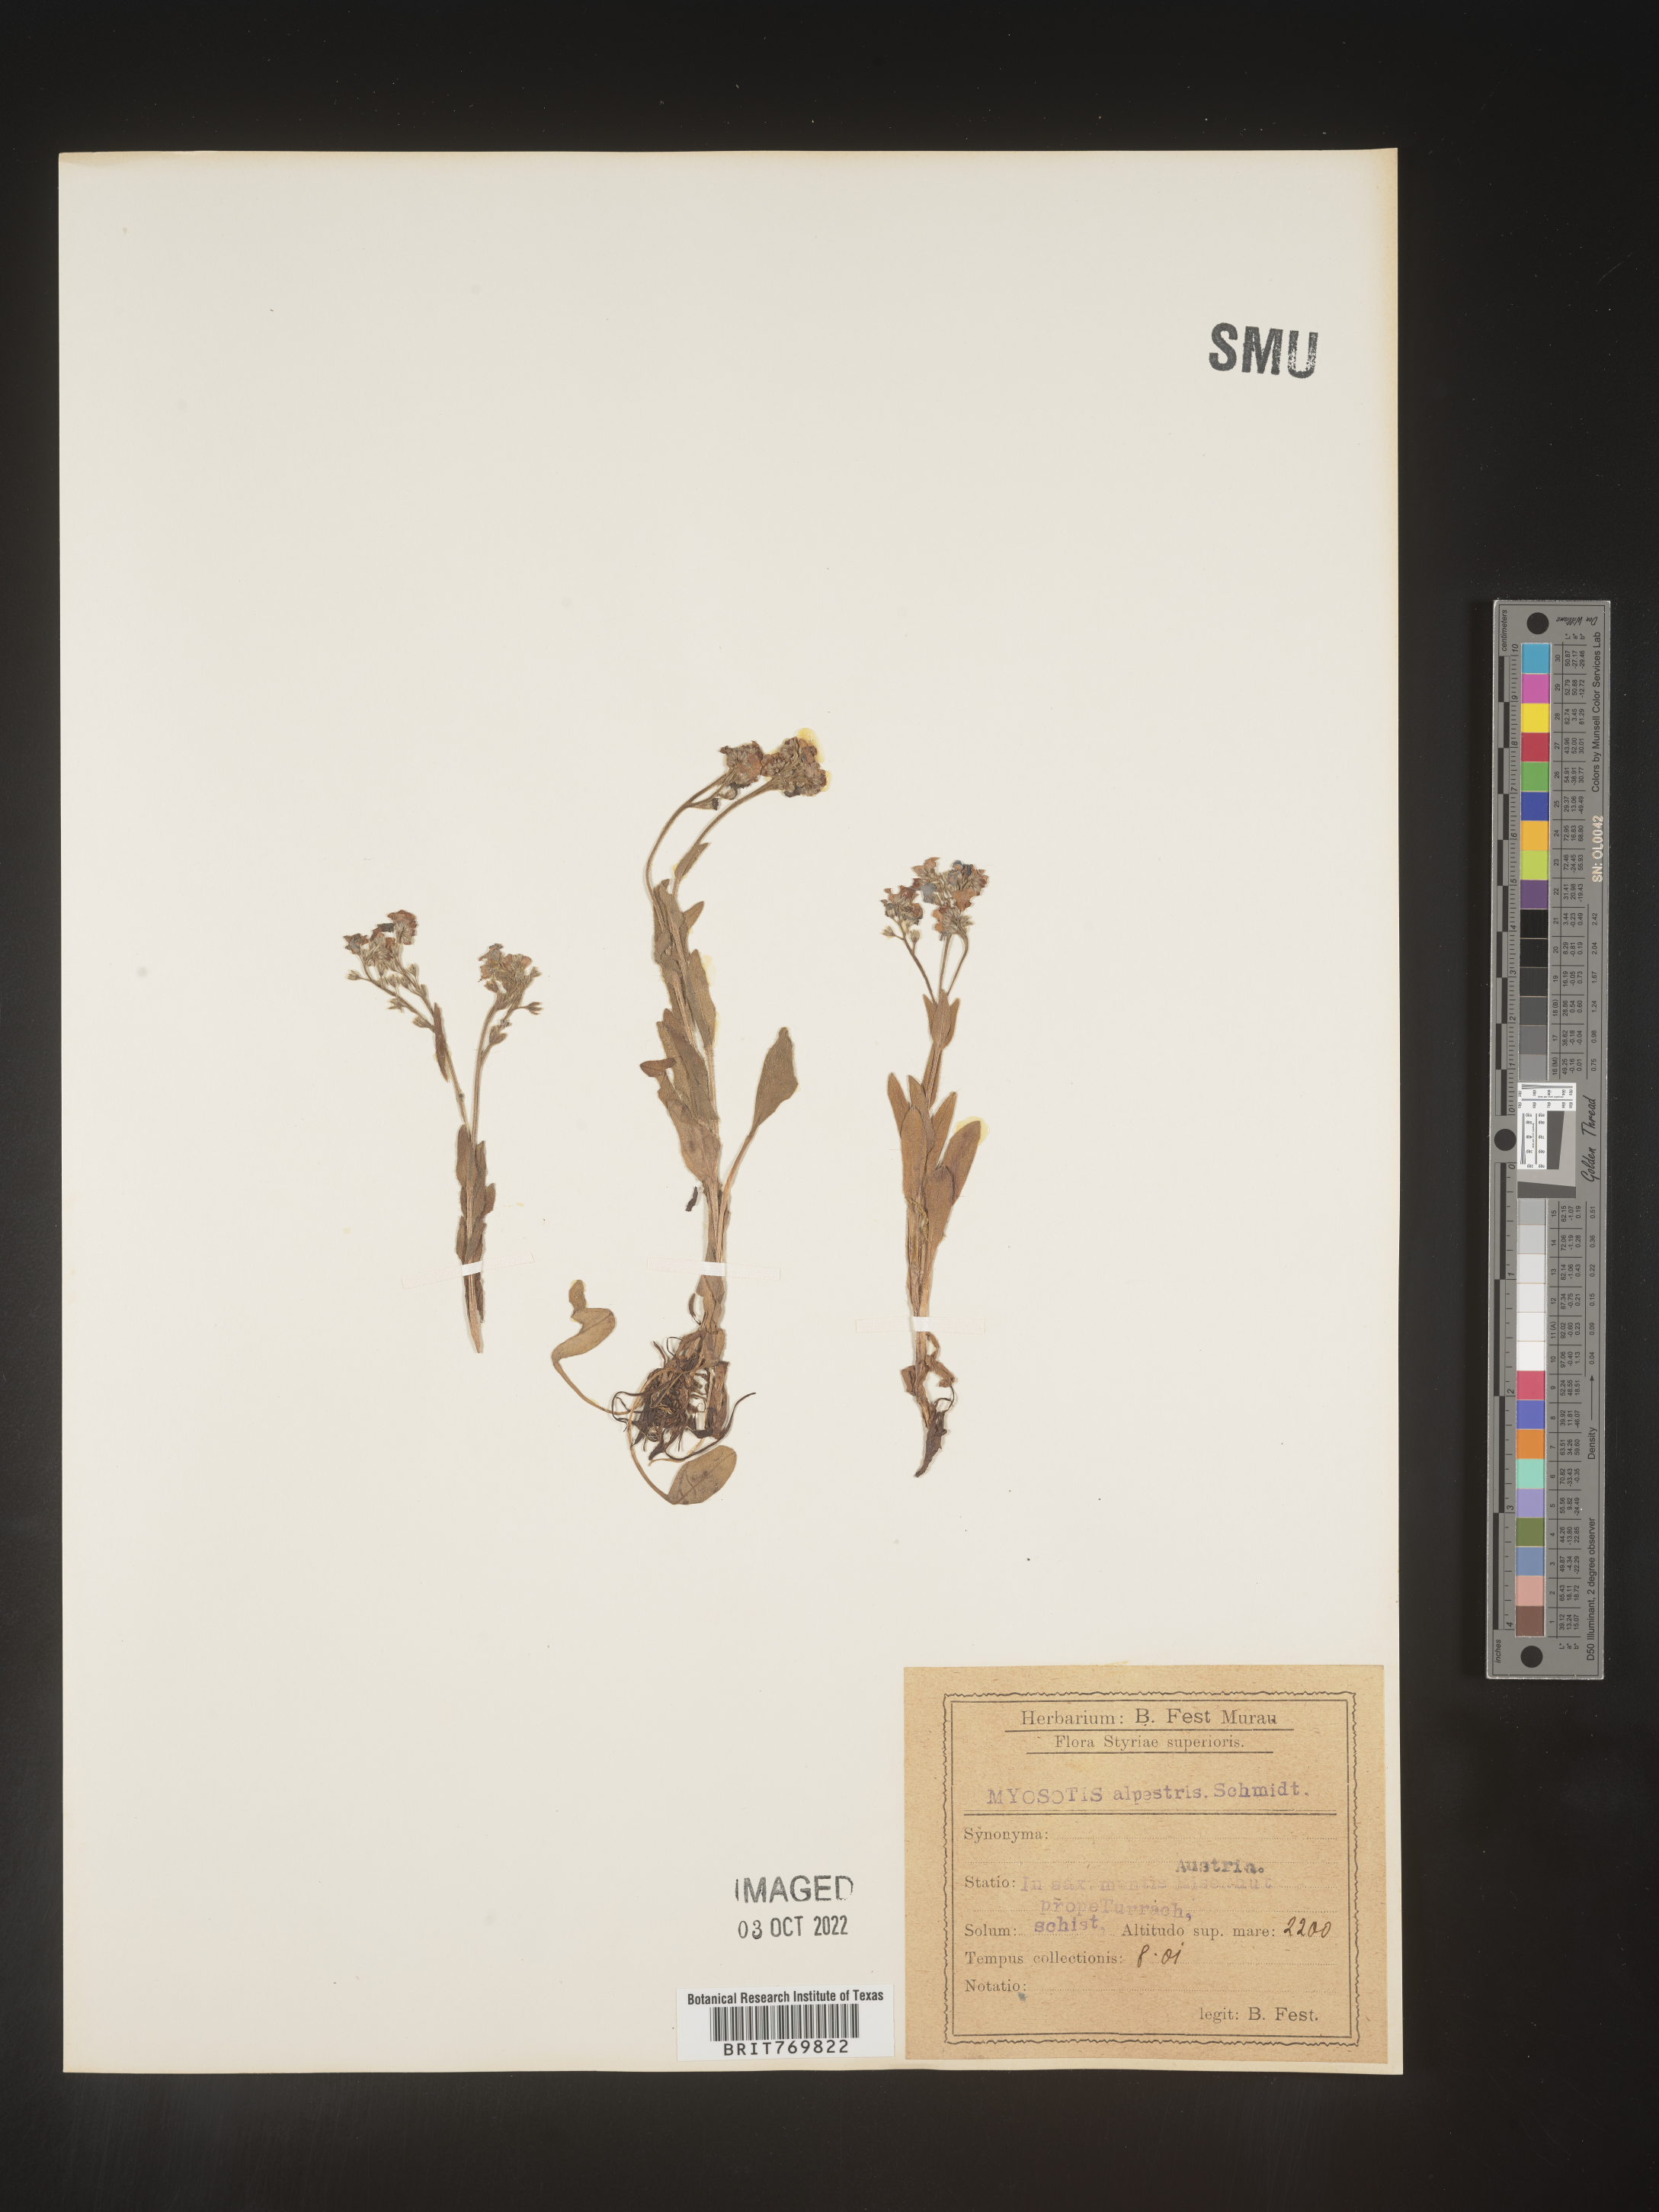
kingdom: Plantae
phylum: Tracheophyta
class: Magnoliopsida
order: Boraginales
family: Boraginaceae
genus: Myosotis
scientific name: Myosotis
